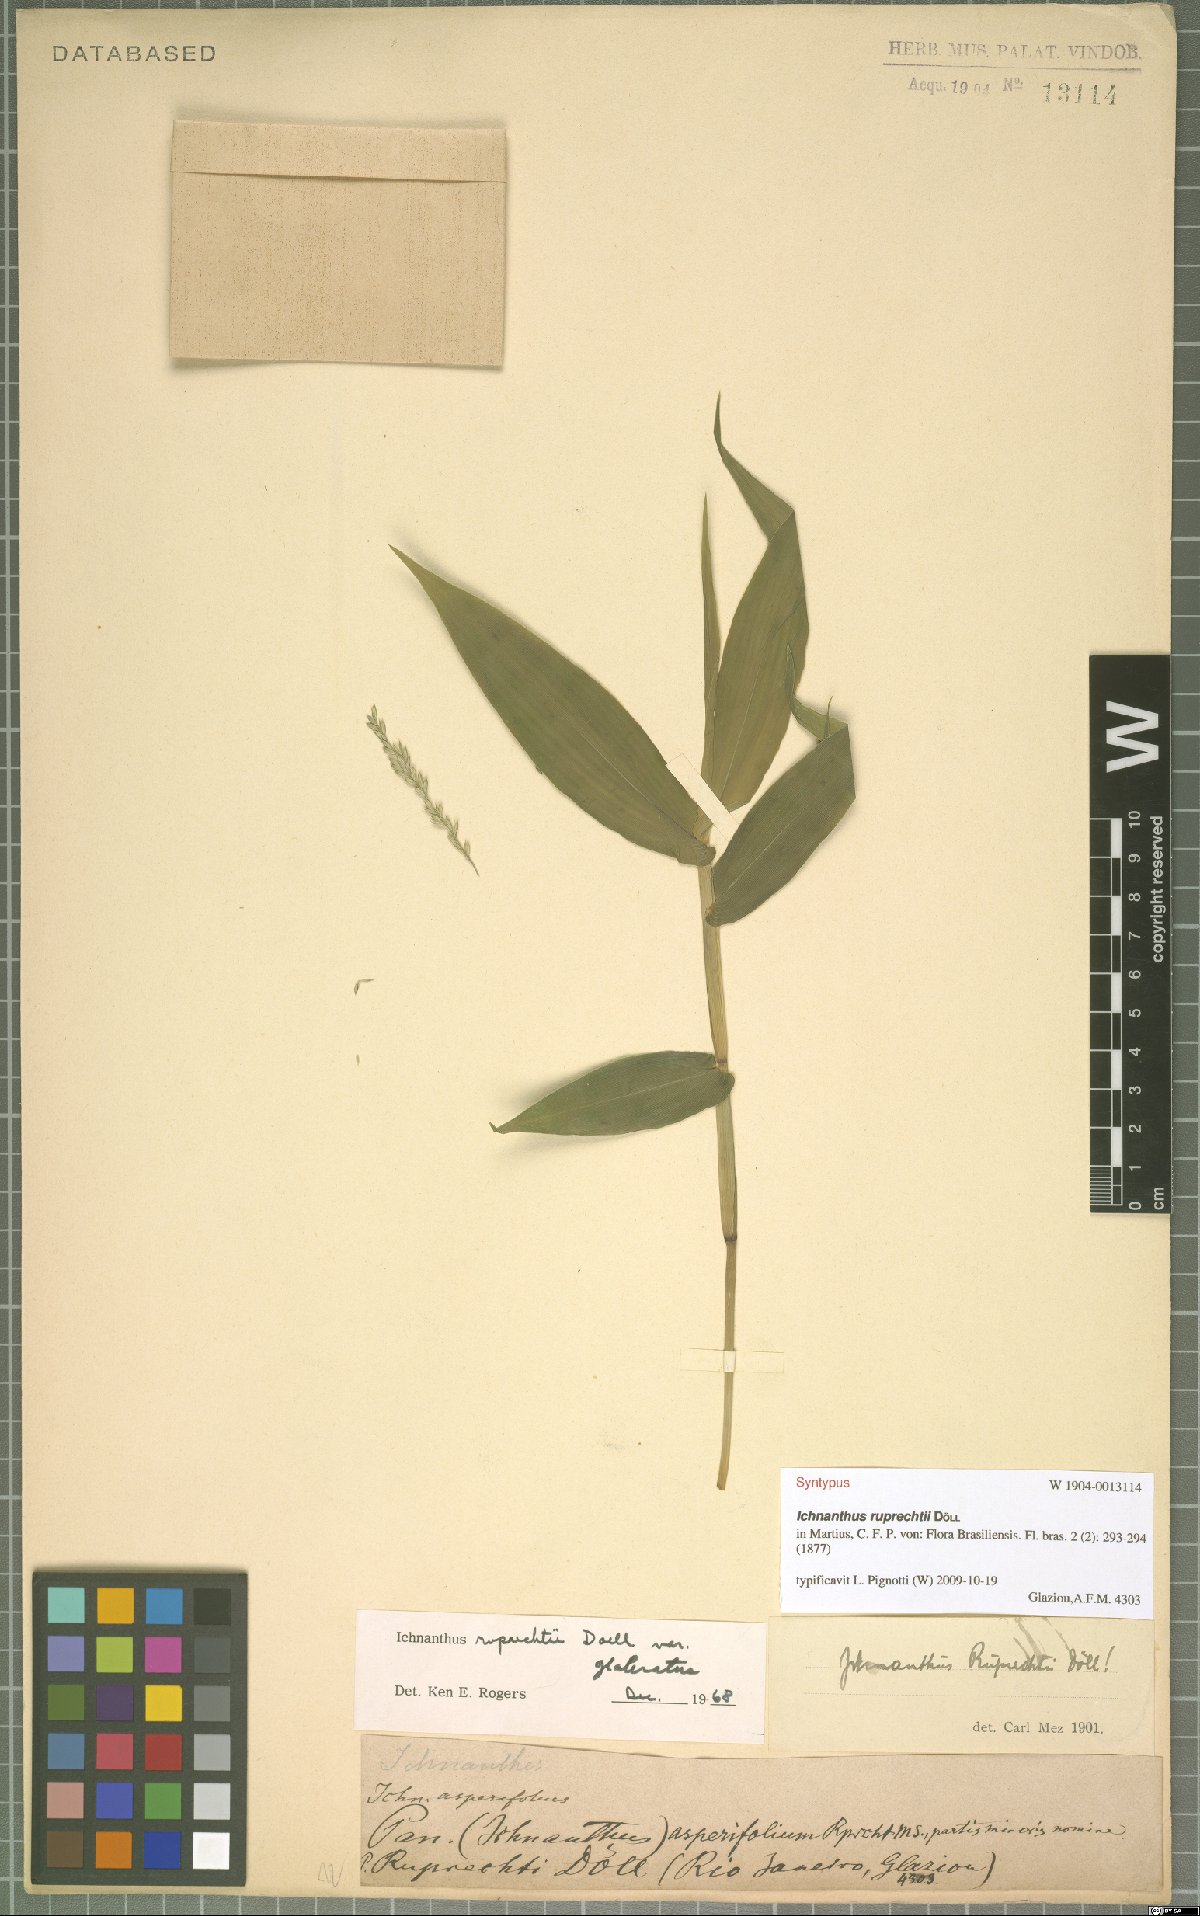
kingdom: Plantae
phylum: Tracheophyta
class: Liliopsida
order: Poales
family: Poaceae
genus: Ichnanthus
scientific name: Ichnanthus ruprechtii
